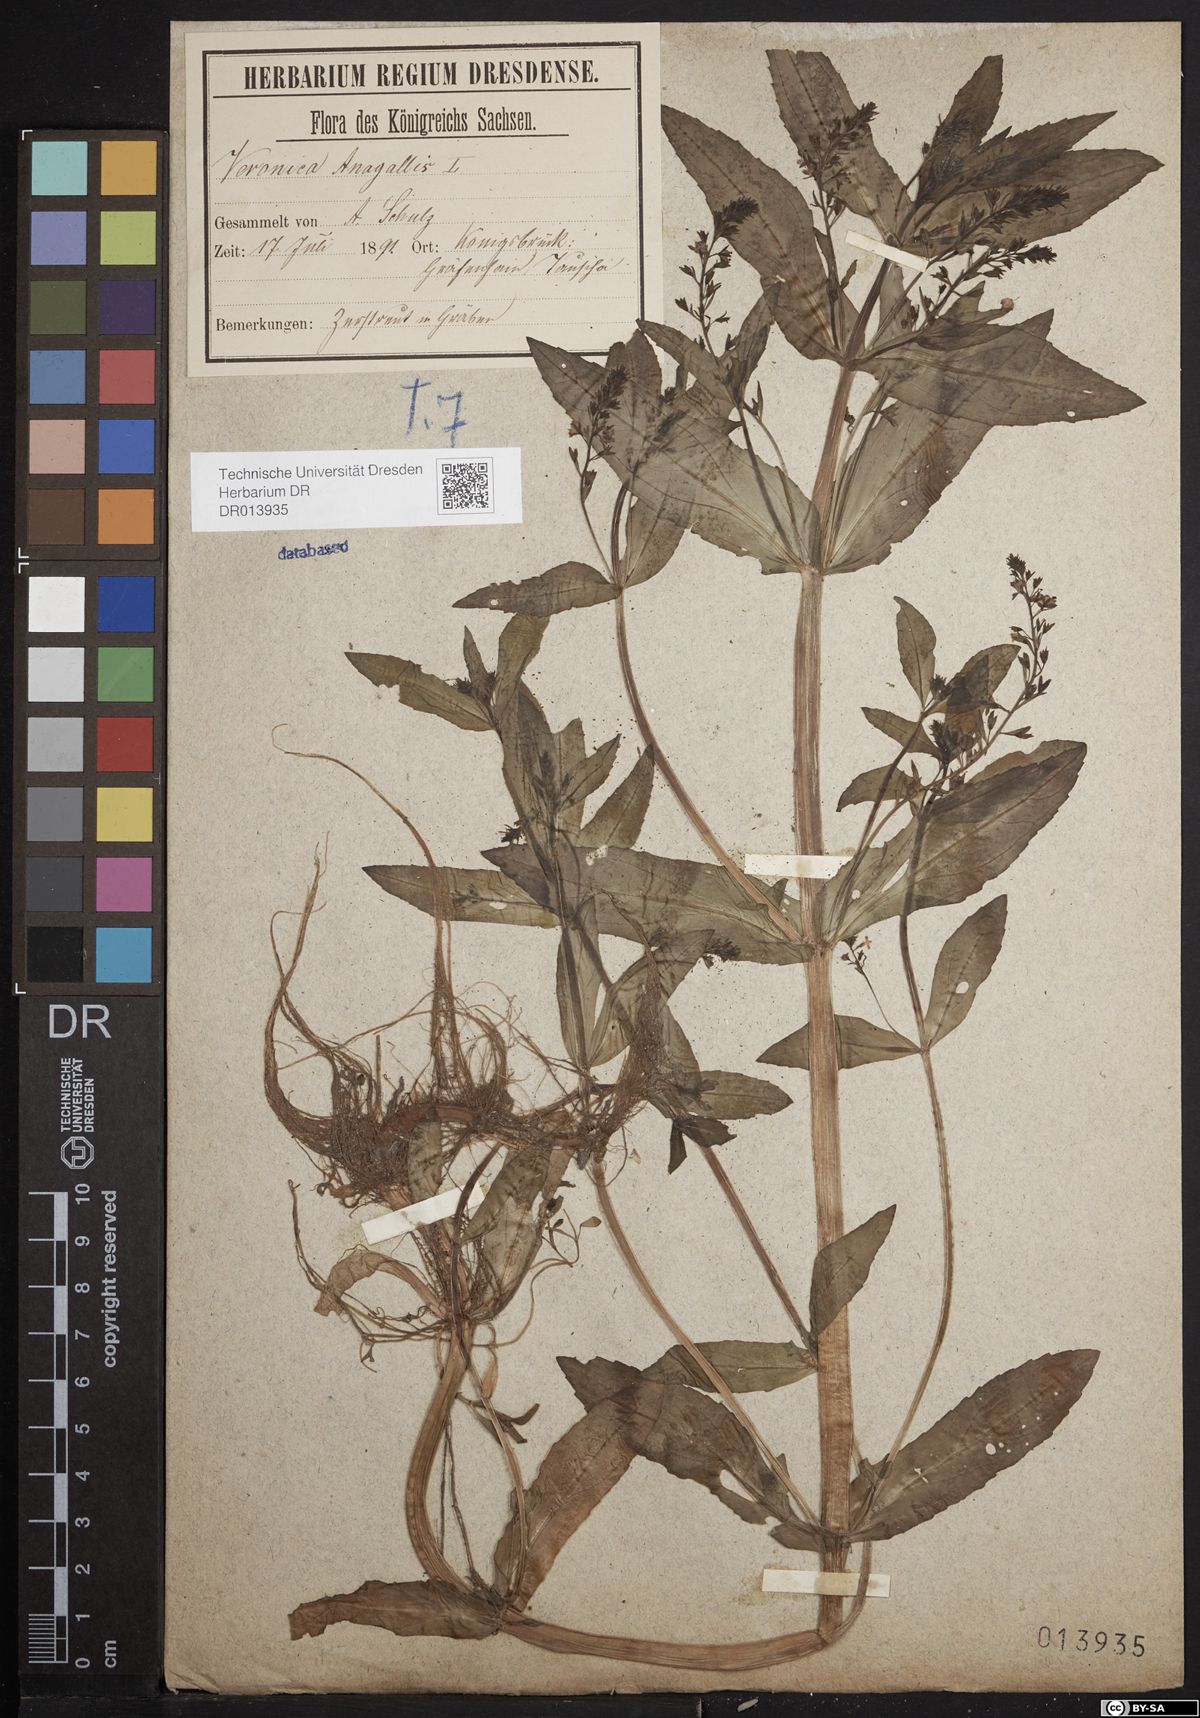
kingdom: Plantae
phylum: Tracheophyta
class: Magnoliopsida
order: Lamiales
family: Plantaginaceae
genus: Veronica
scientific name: Veronica anagallis-aquatica
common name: Water speedwell
